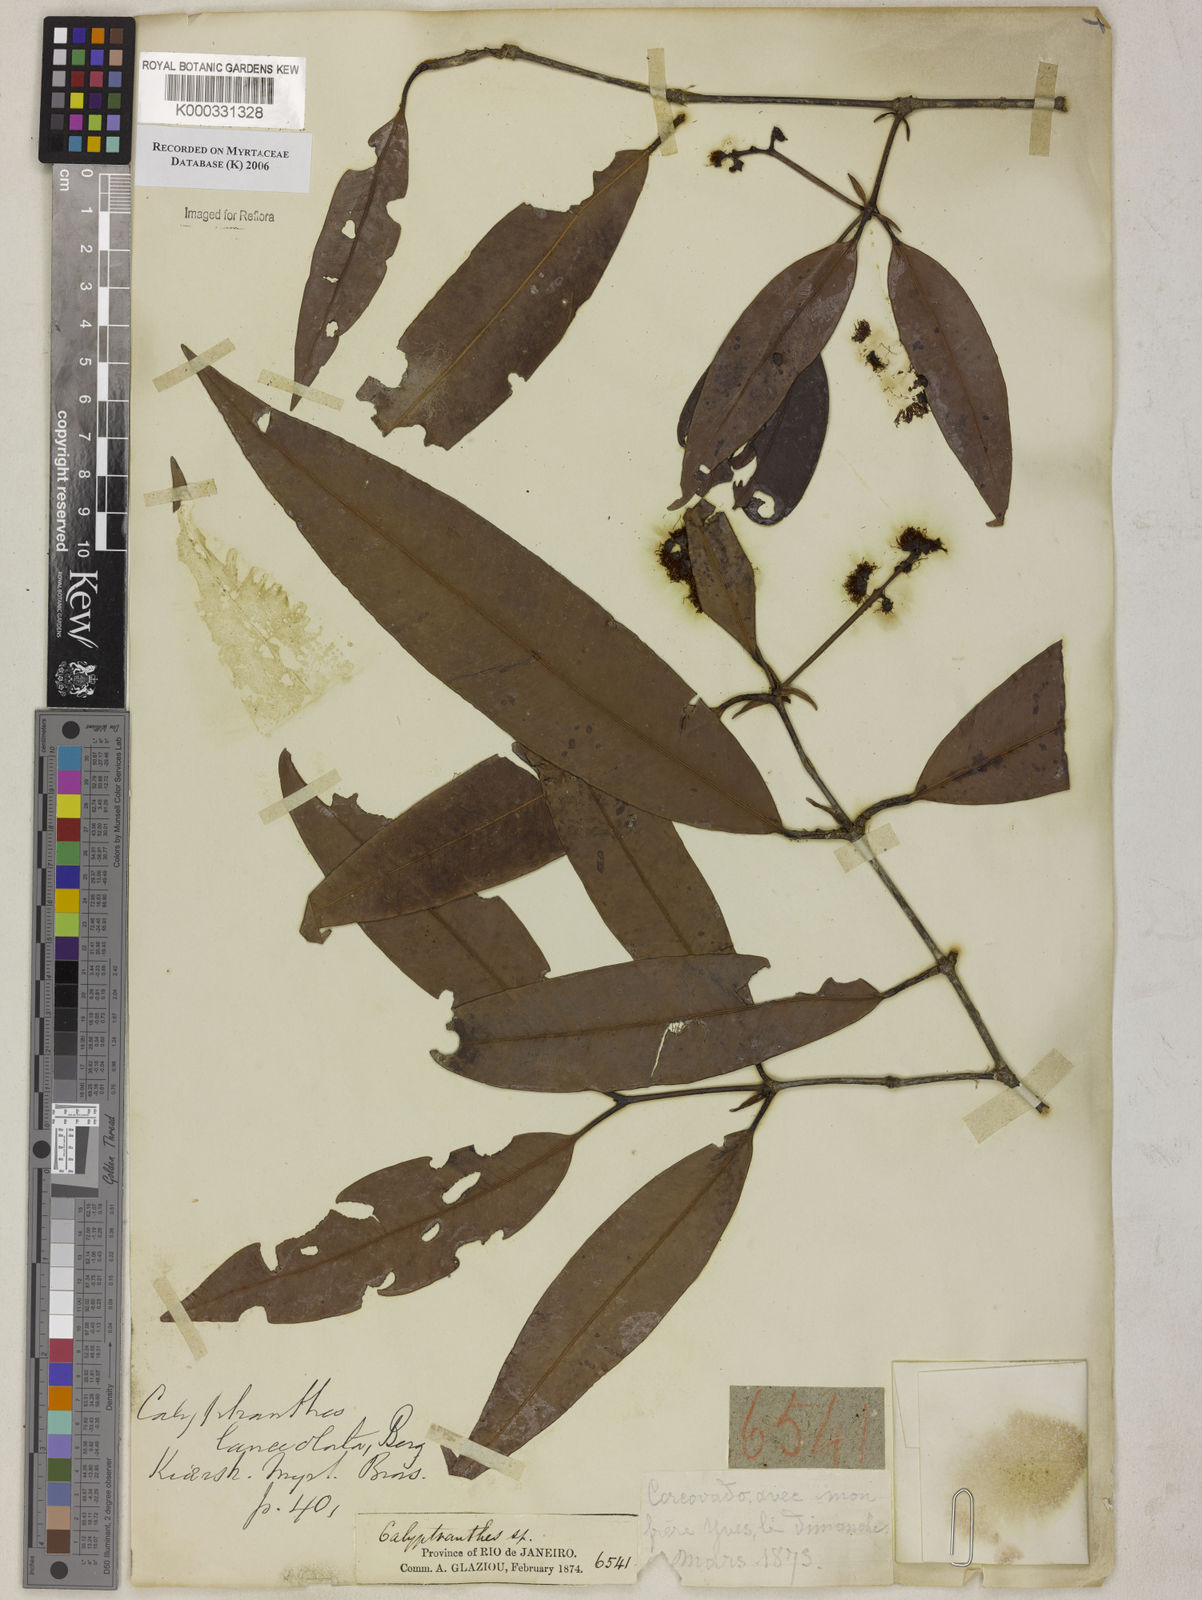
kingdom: Plantae
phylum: Tracheophyta
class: Magnoliopsida
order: Myrtales
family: Myrtaceae
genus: Myrcia
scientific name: Myrcia lonchophylla
